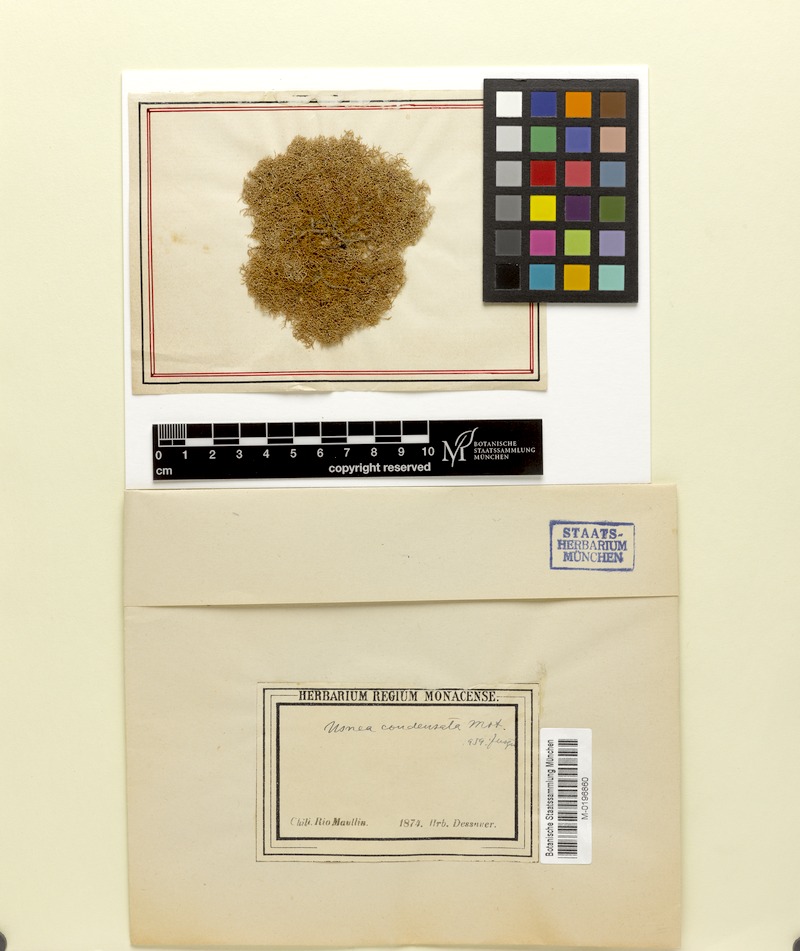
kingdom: Fungi
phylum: Ascomycota
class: Lecanoromycetes
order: Lecanorales
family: Parmeliaceae
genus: Usnea
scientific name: Usnea condensata
